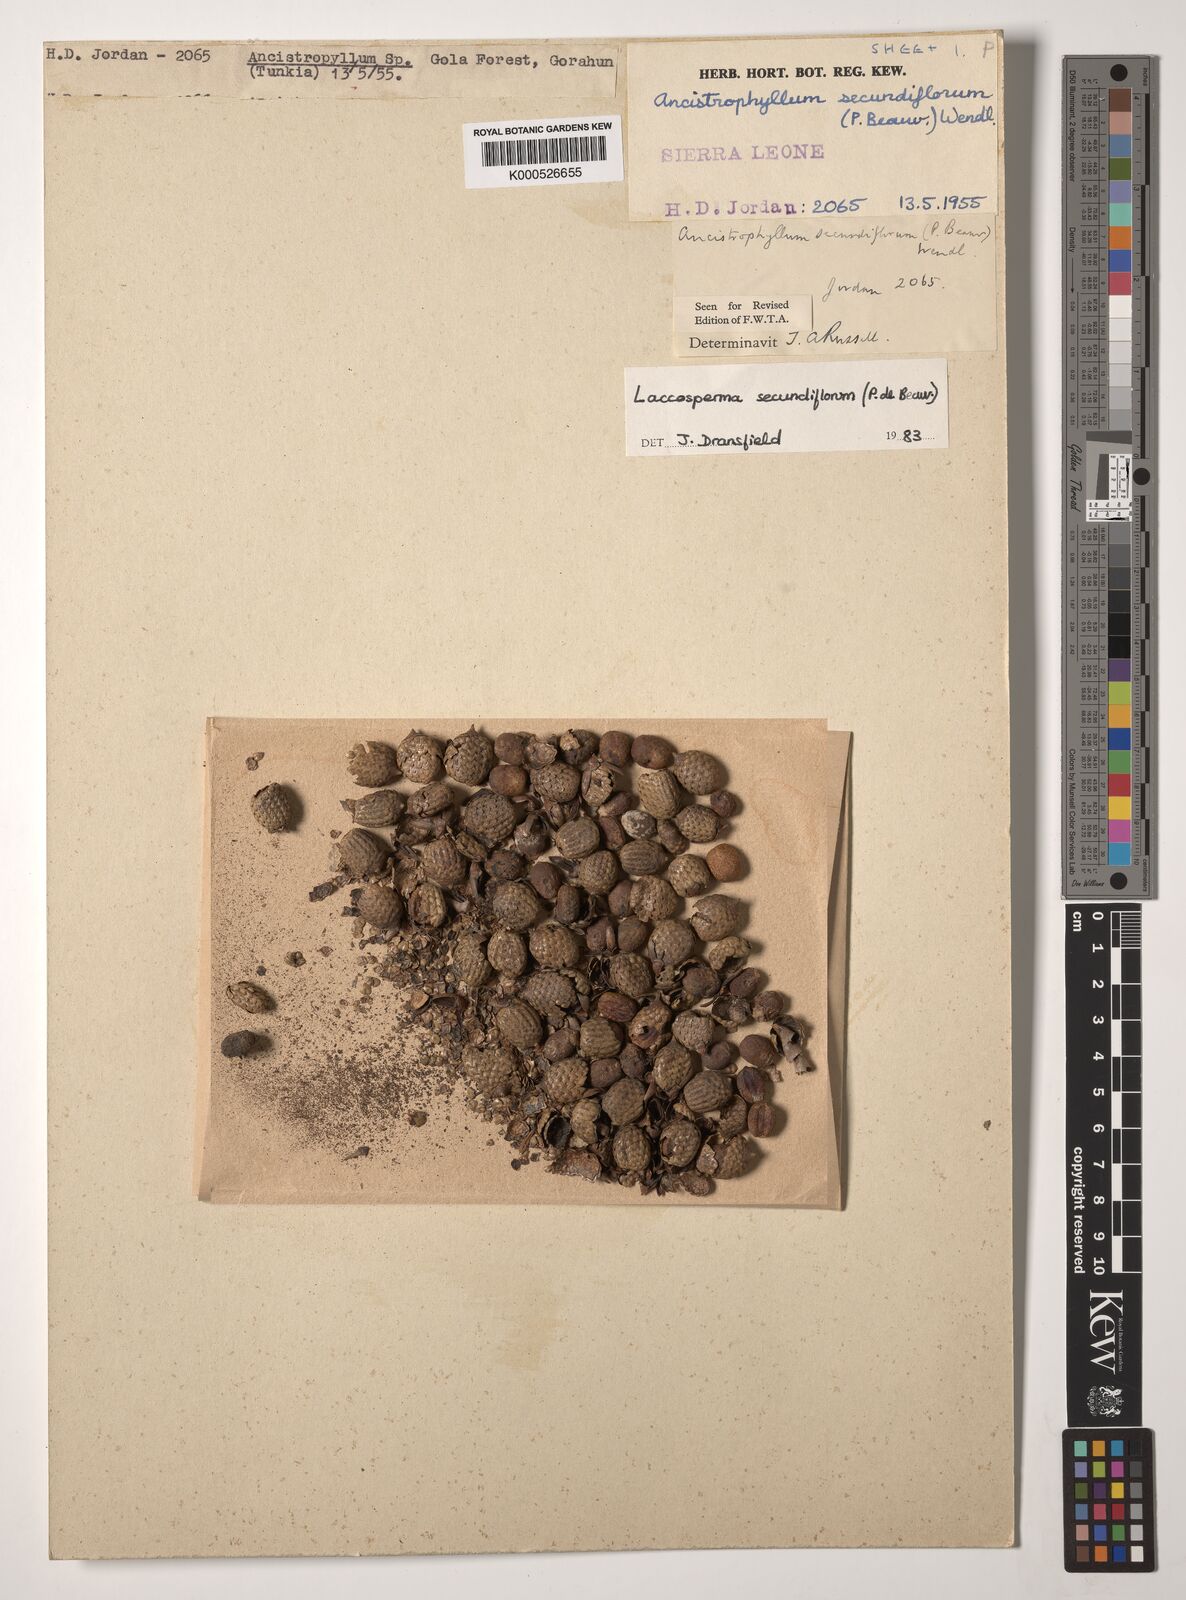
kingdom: Plantae
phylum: Tracheophyta
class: Liliopsida
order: Arecales
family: Arecaceae
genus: Laccosperma
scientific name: Laccosperma secundiflorum
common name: Rattan
